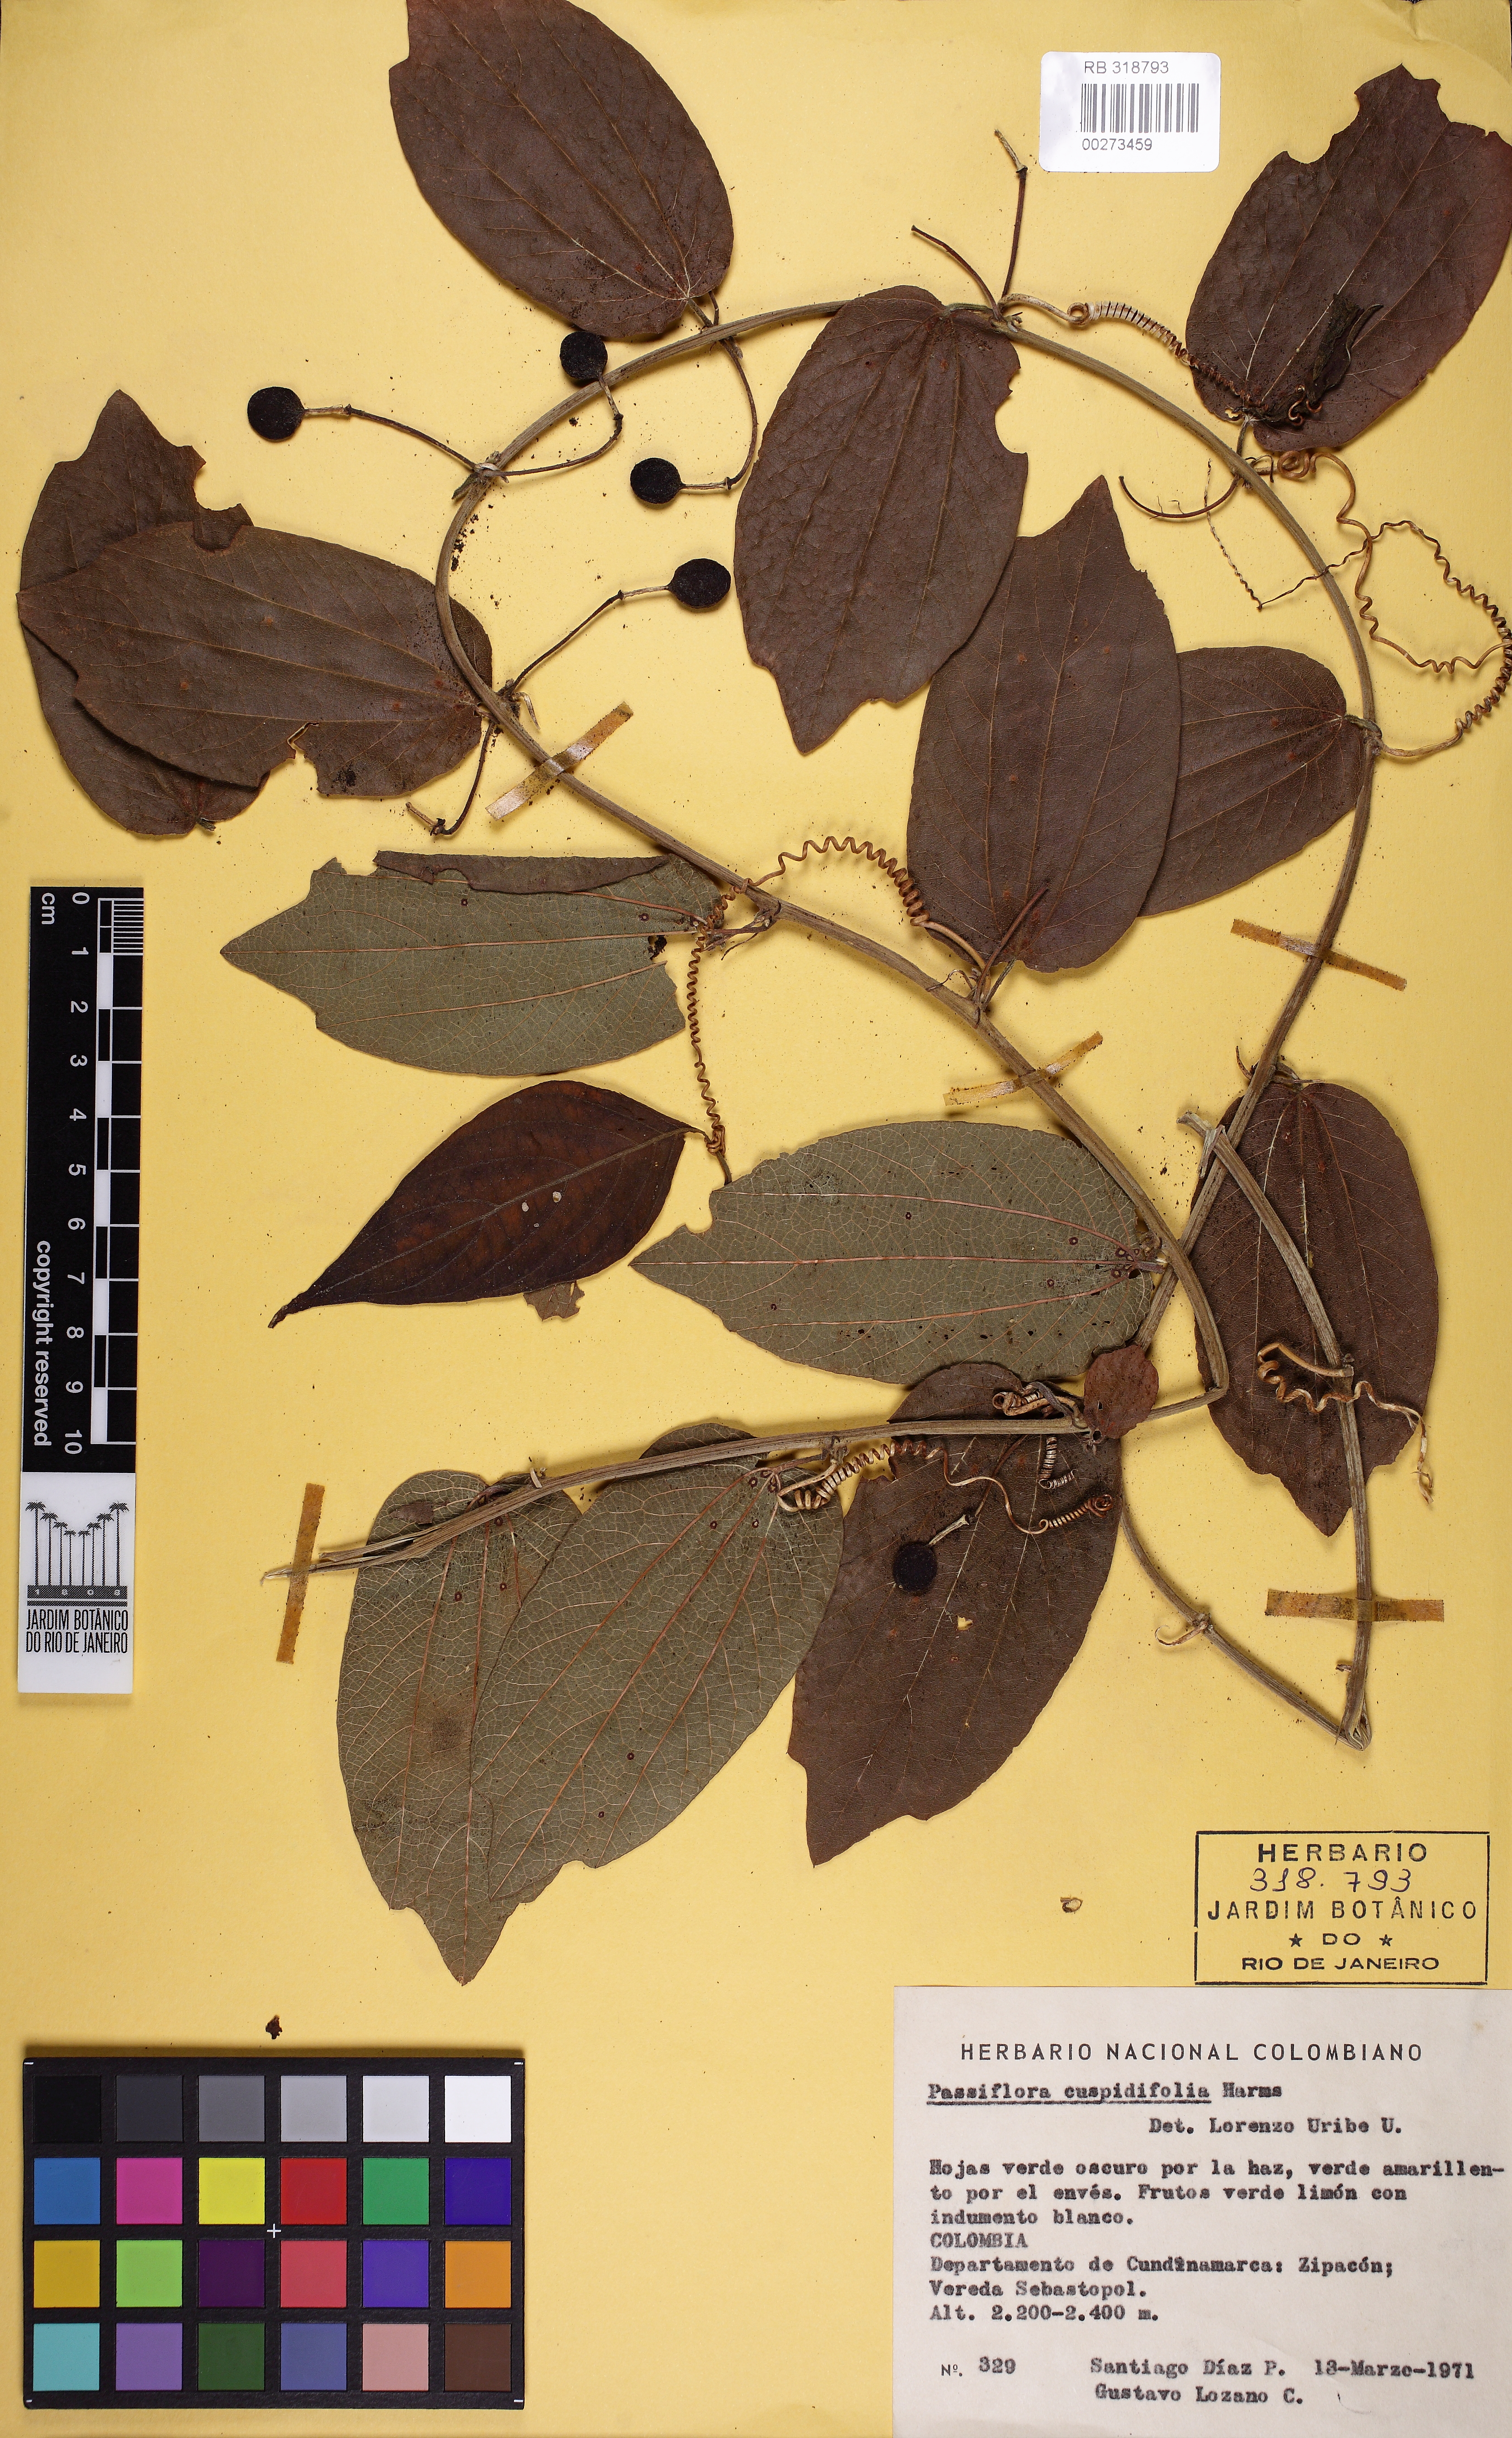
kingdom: Plantae
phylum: Tracheophyta
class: Magnoliopsida
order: Malpighiales
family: Passifloraceae
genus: Passiflora
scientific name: Passiflora cuspidifolia
